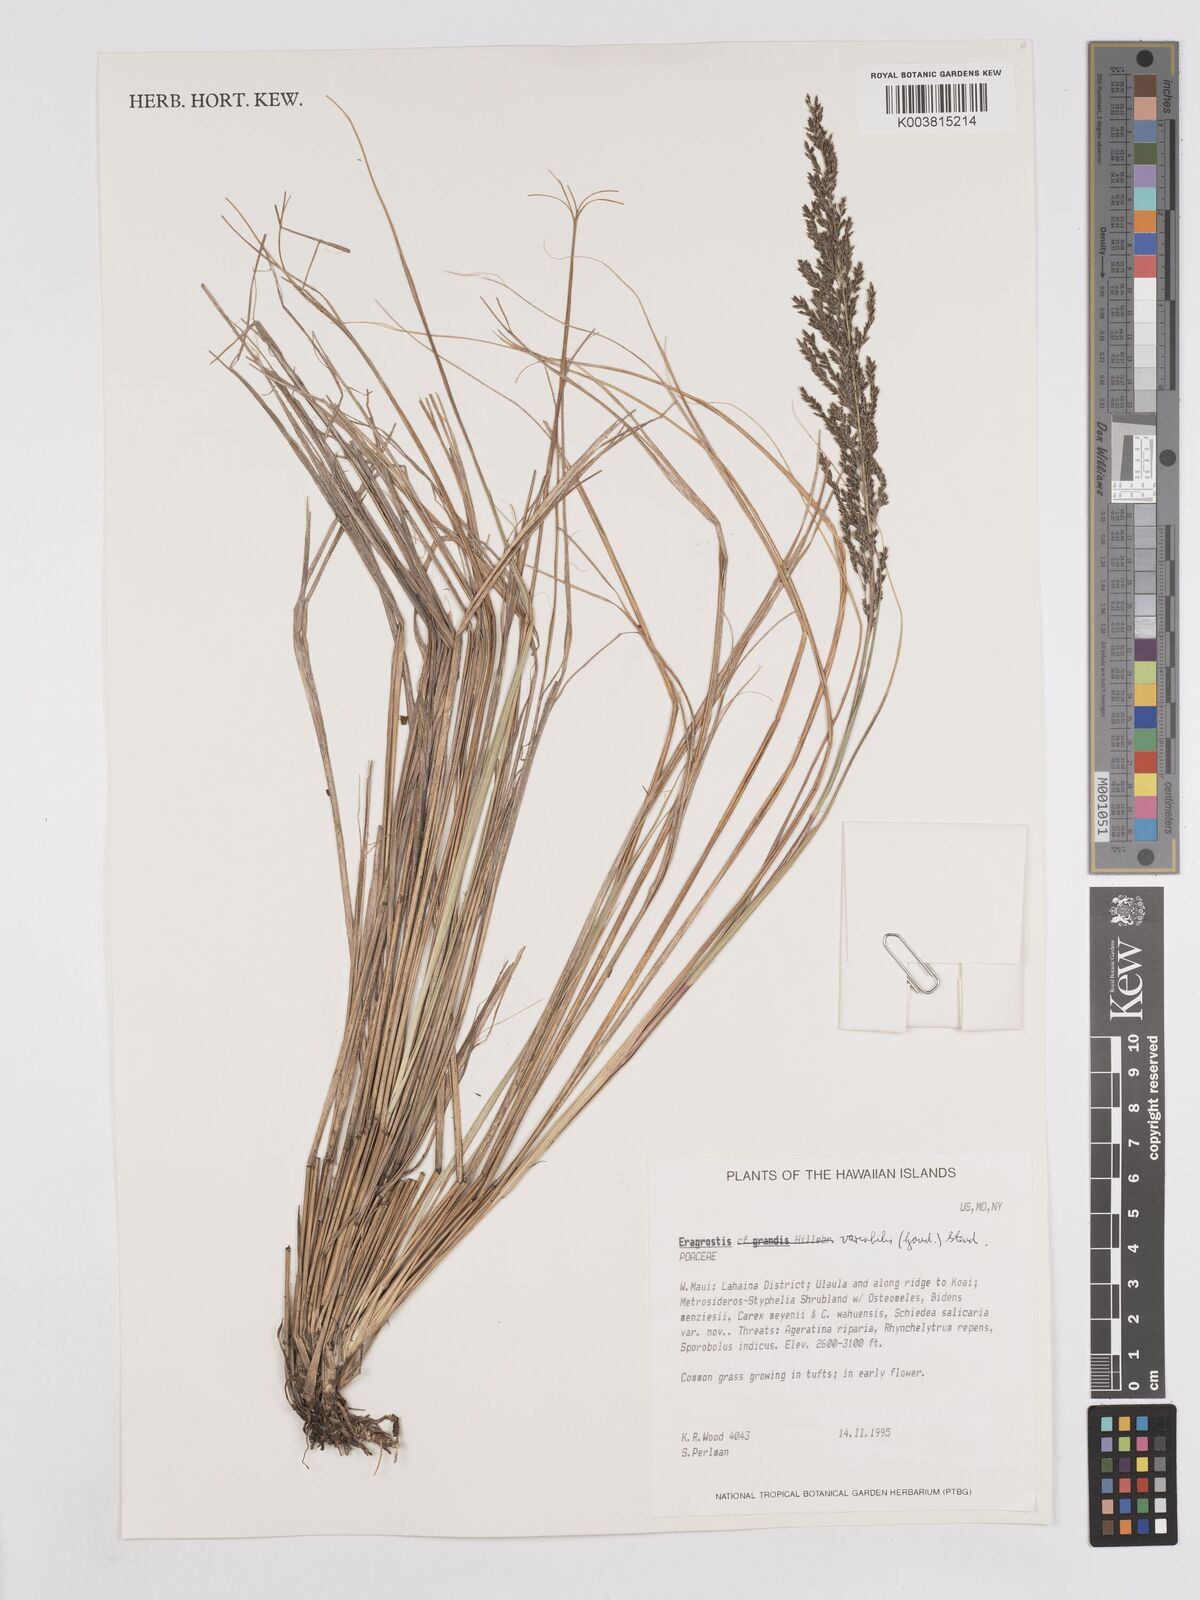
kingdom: Plantae
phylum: Tracheophyta
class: Liliopsida
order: Poales
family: Poaceae
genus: Eragrostis
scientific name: Eragrostis variabilis
